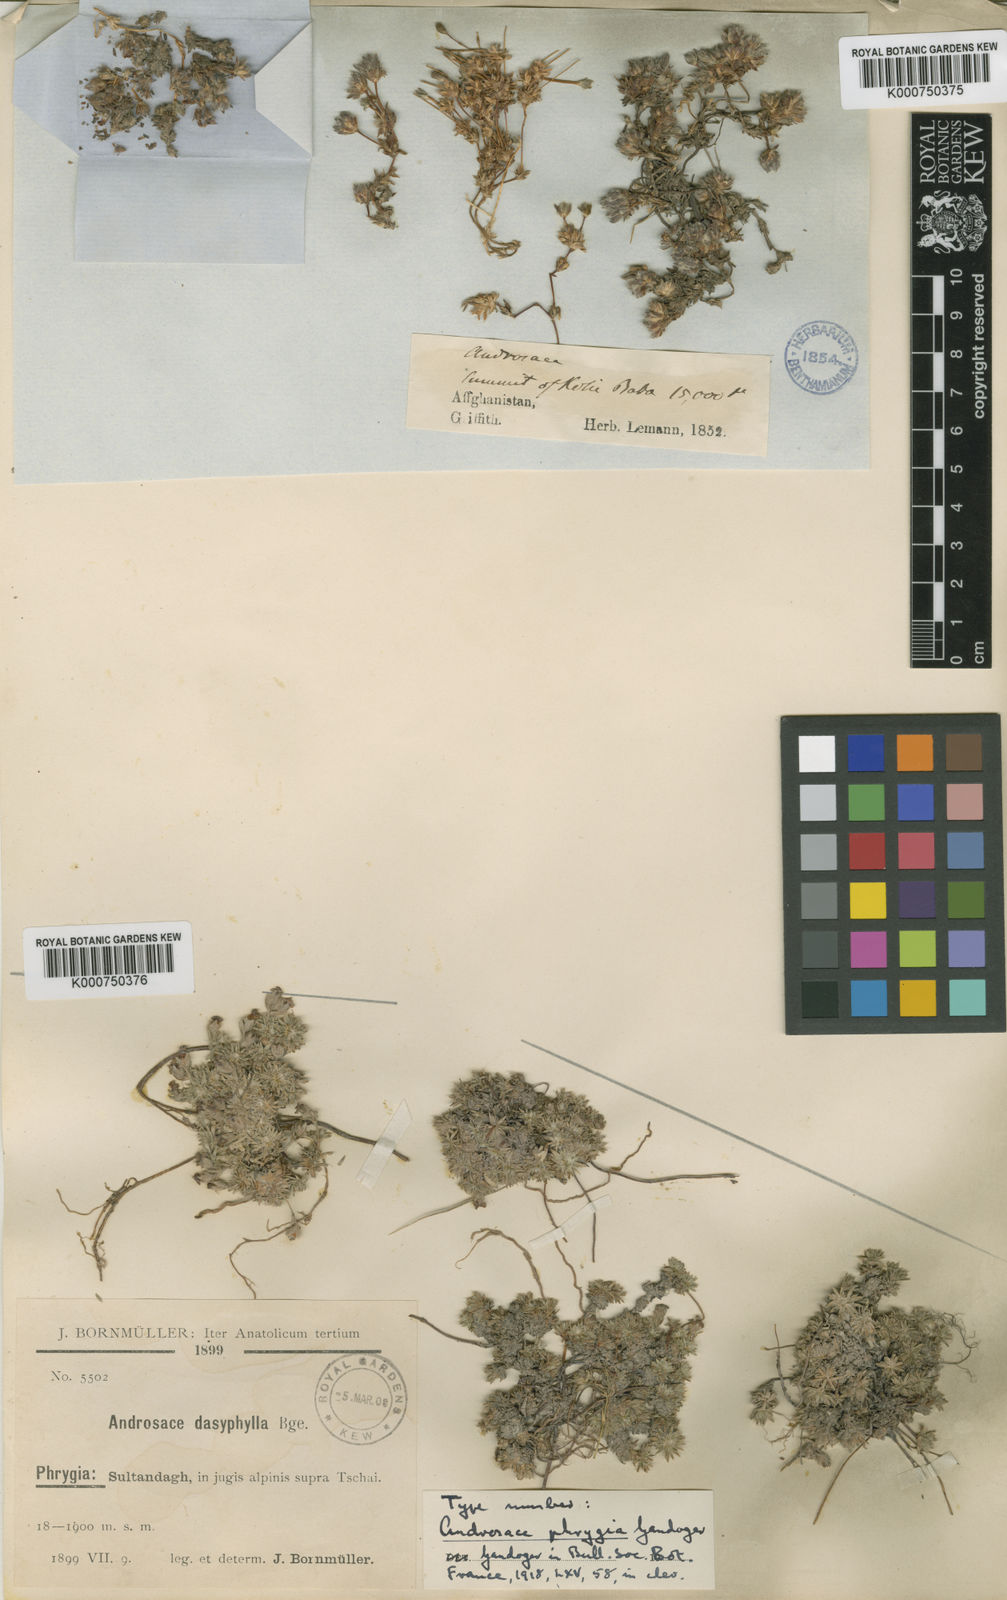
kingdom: Plantae
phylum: Tracheophyta
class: Magnoliopsida
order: Ericales
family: Primulaceae
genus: Androsace
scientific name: Androsace villosa
